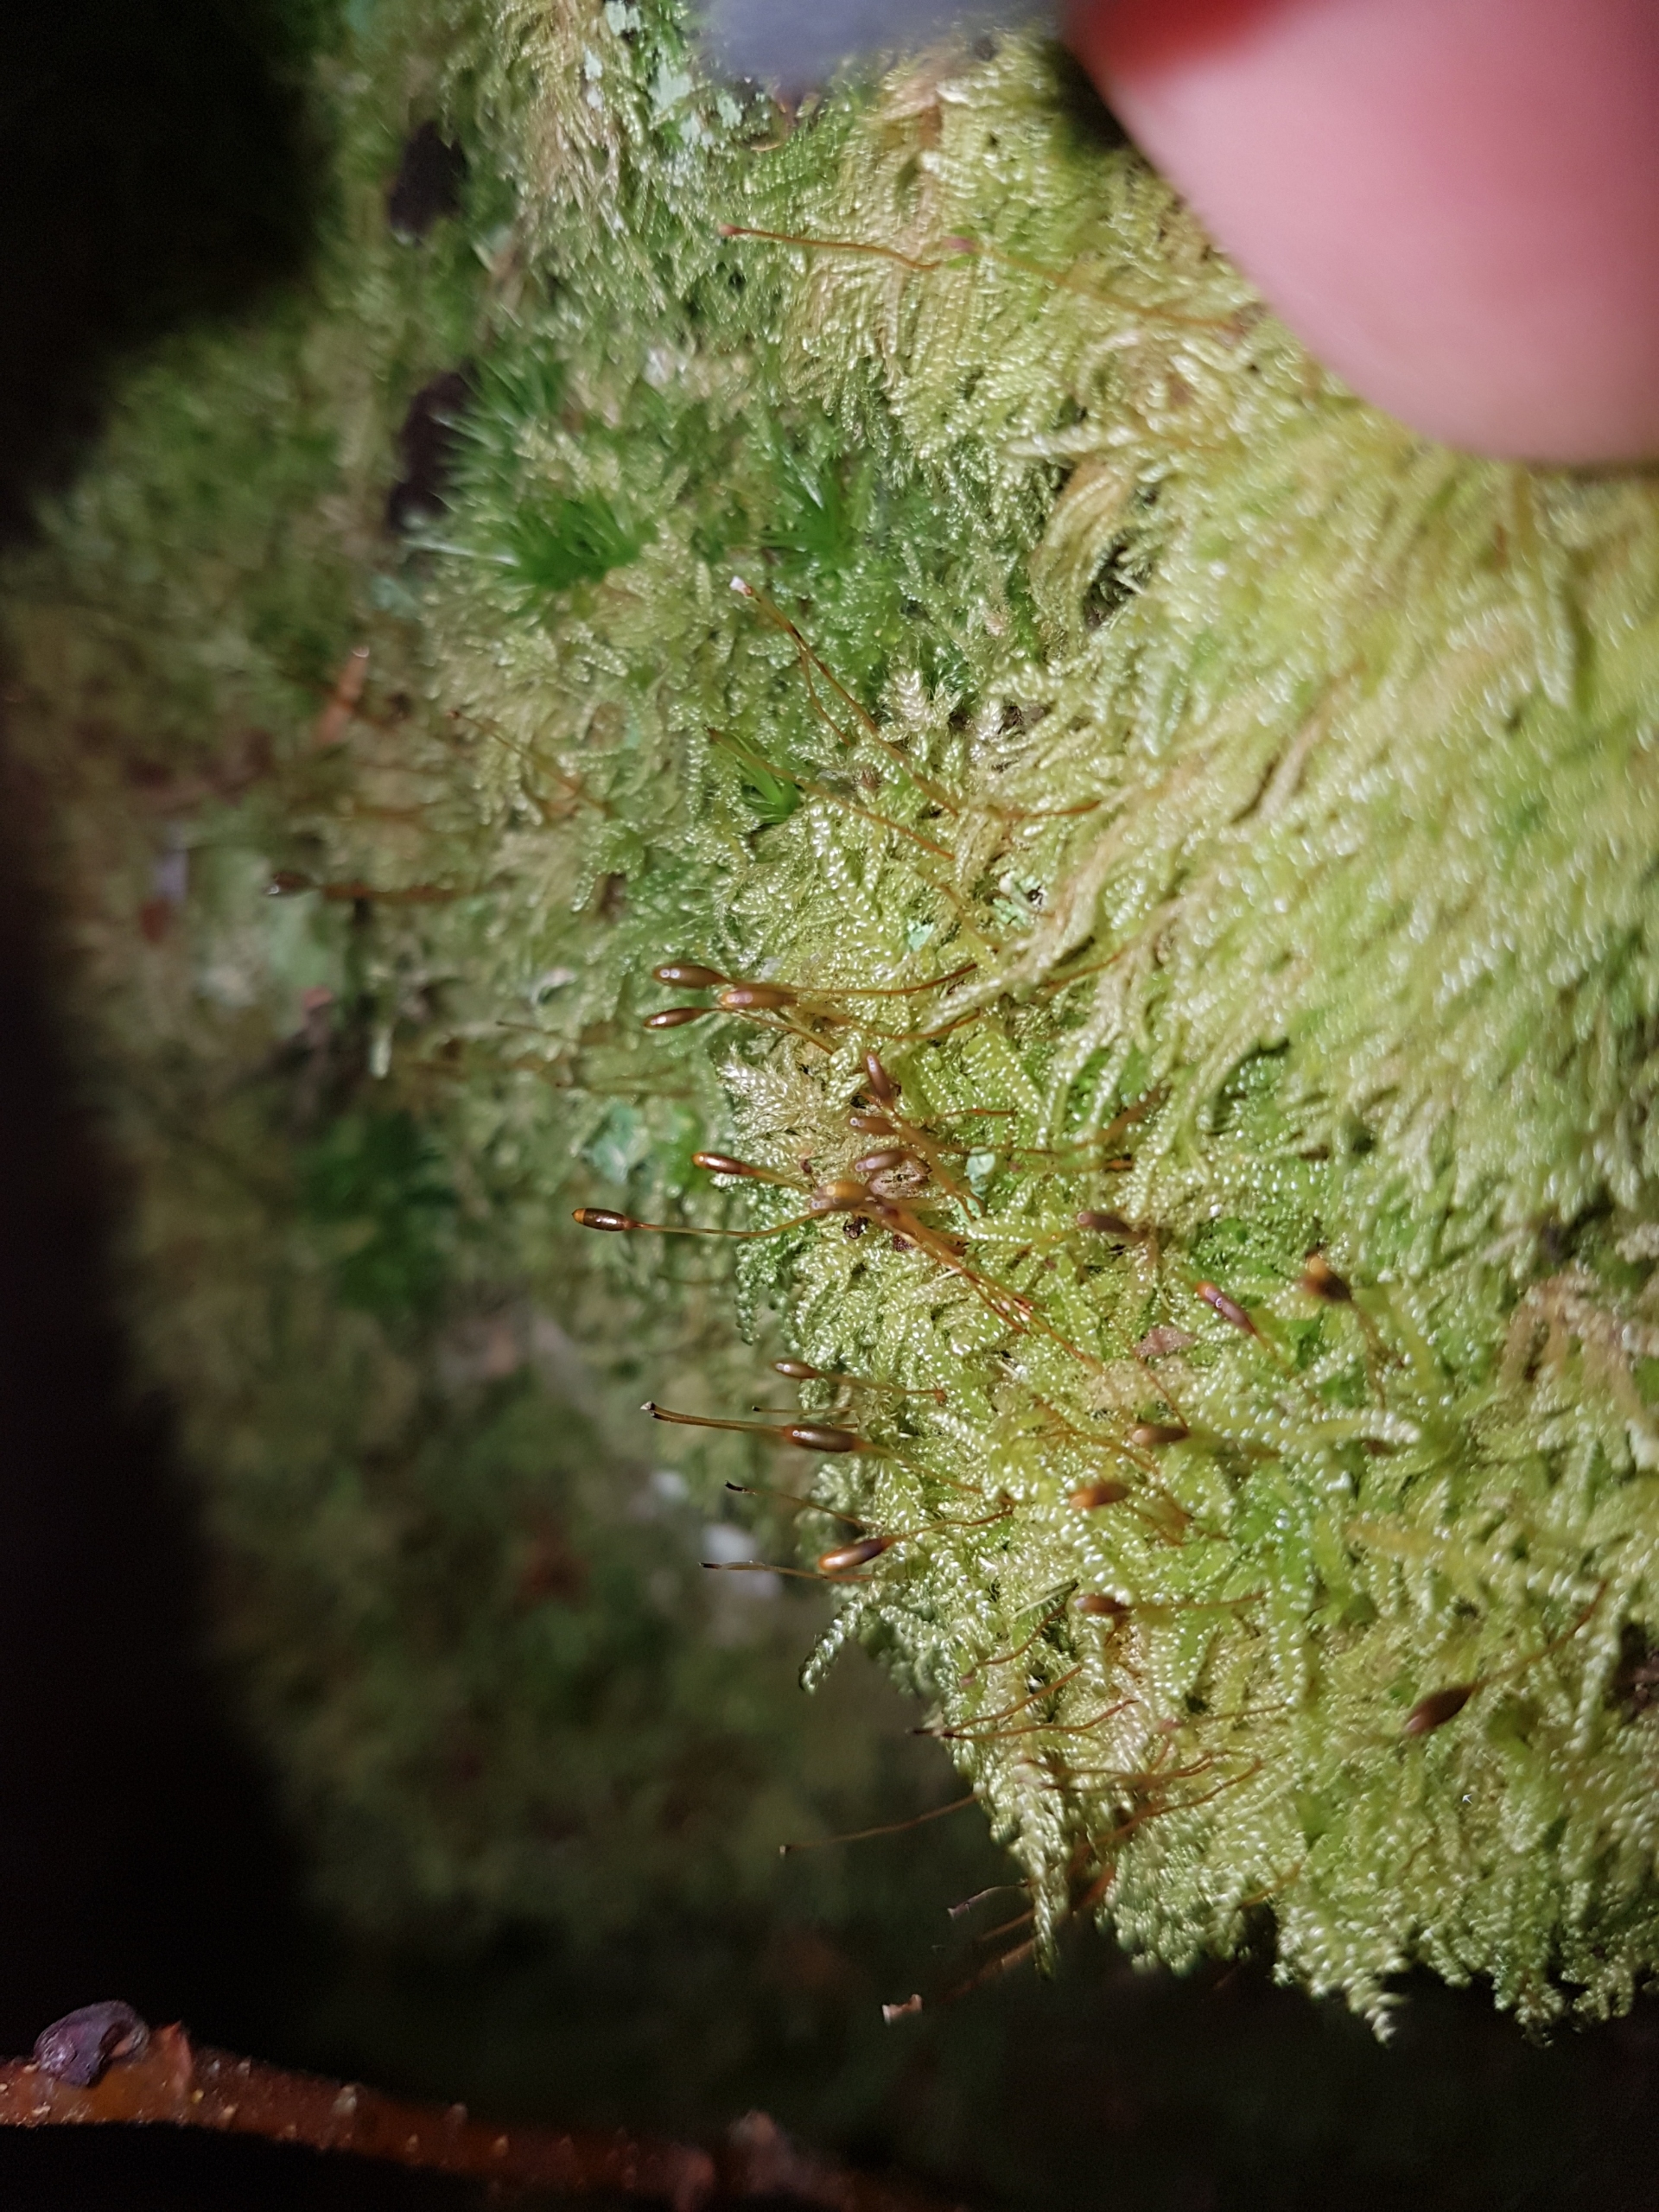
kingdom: Plantae
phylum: Bryophyta
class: Bryopsida
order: Hypnales
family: Hypnaceae
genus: Hypnum
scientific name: Hypnum andoi
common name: Vortet cypresmos
